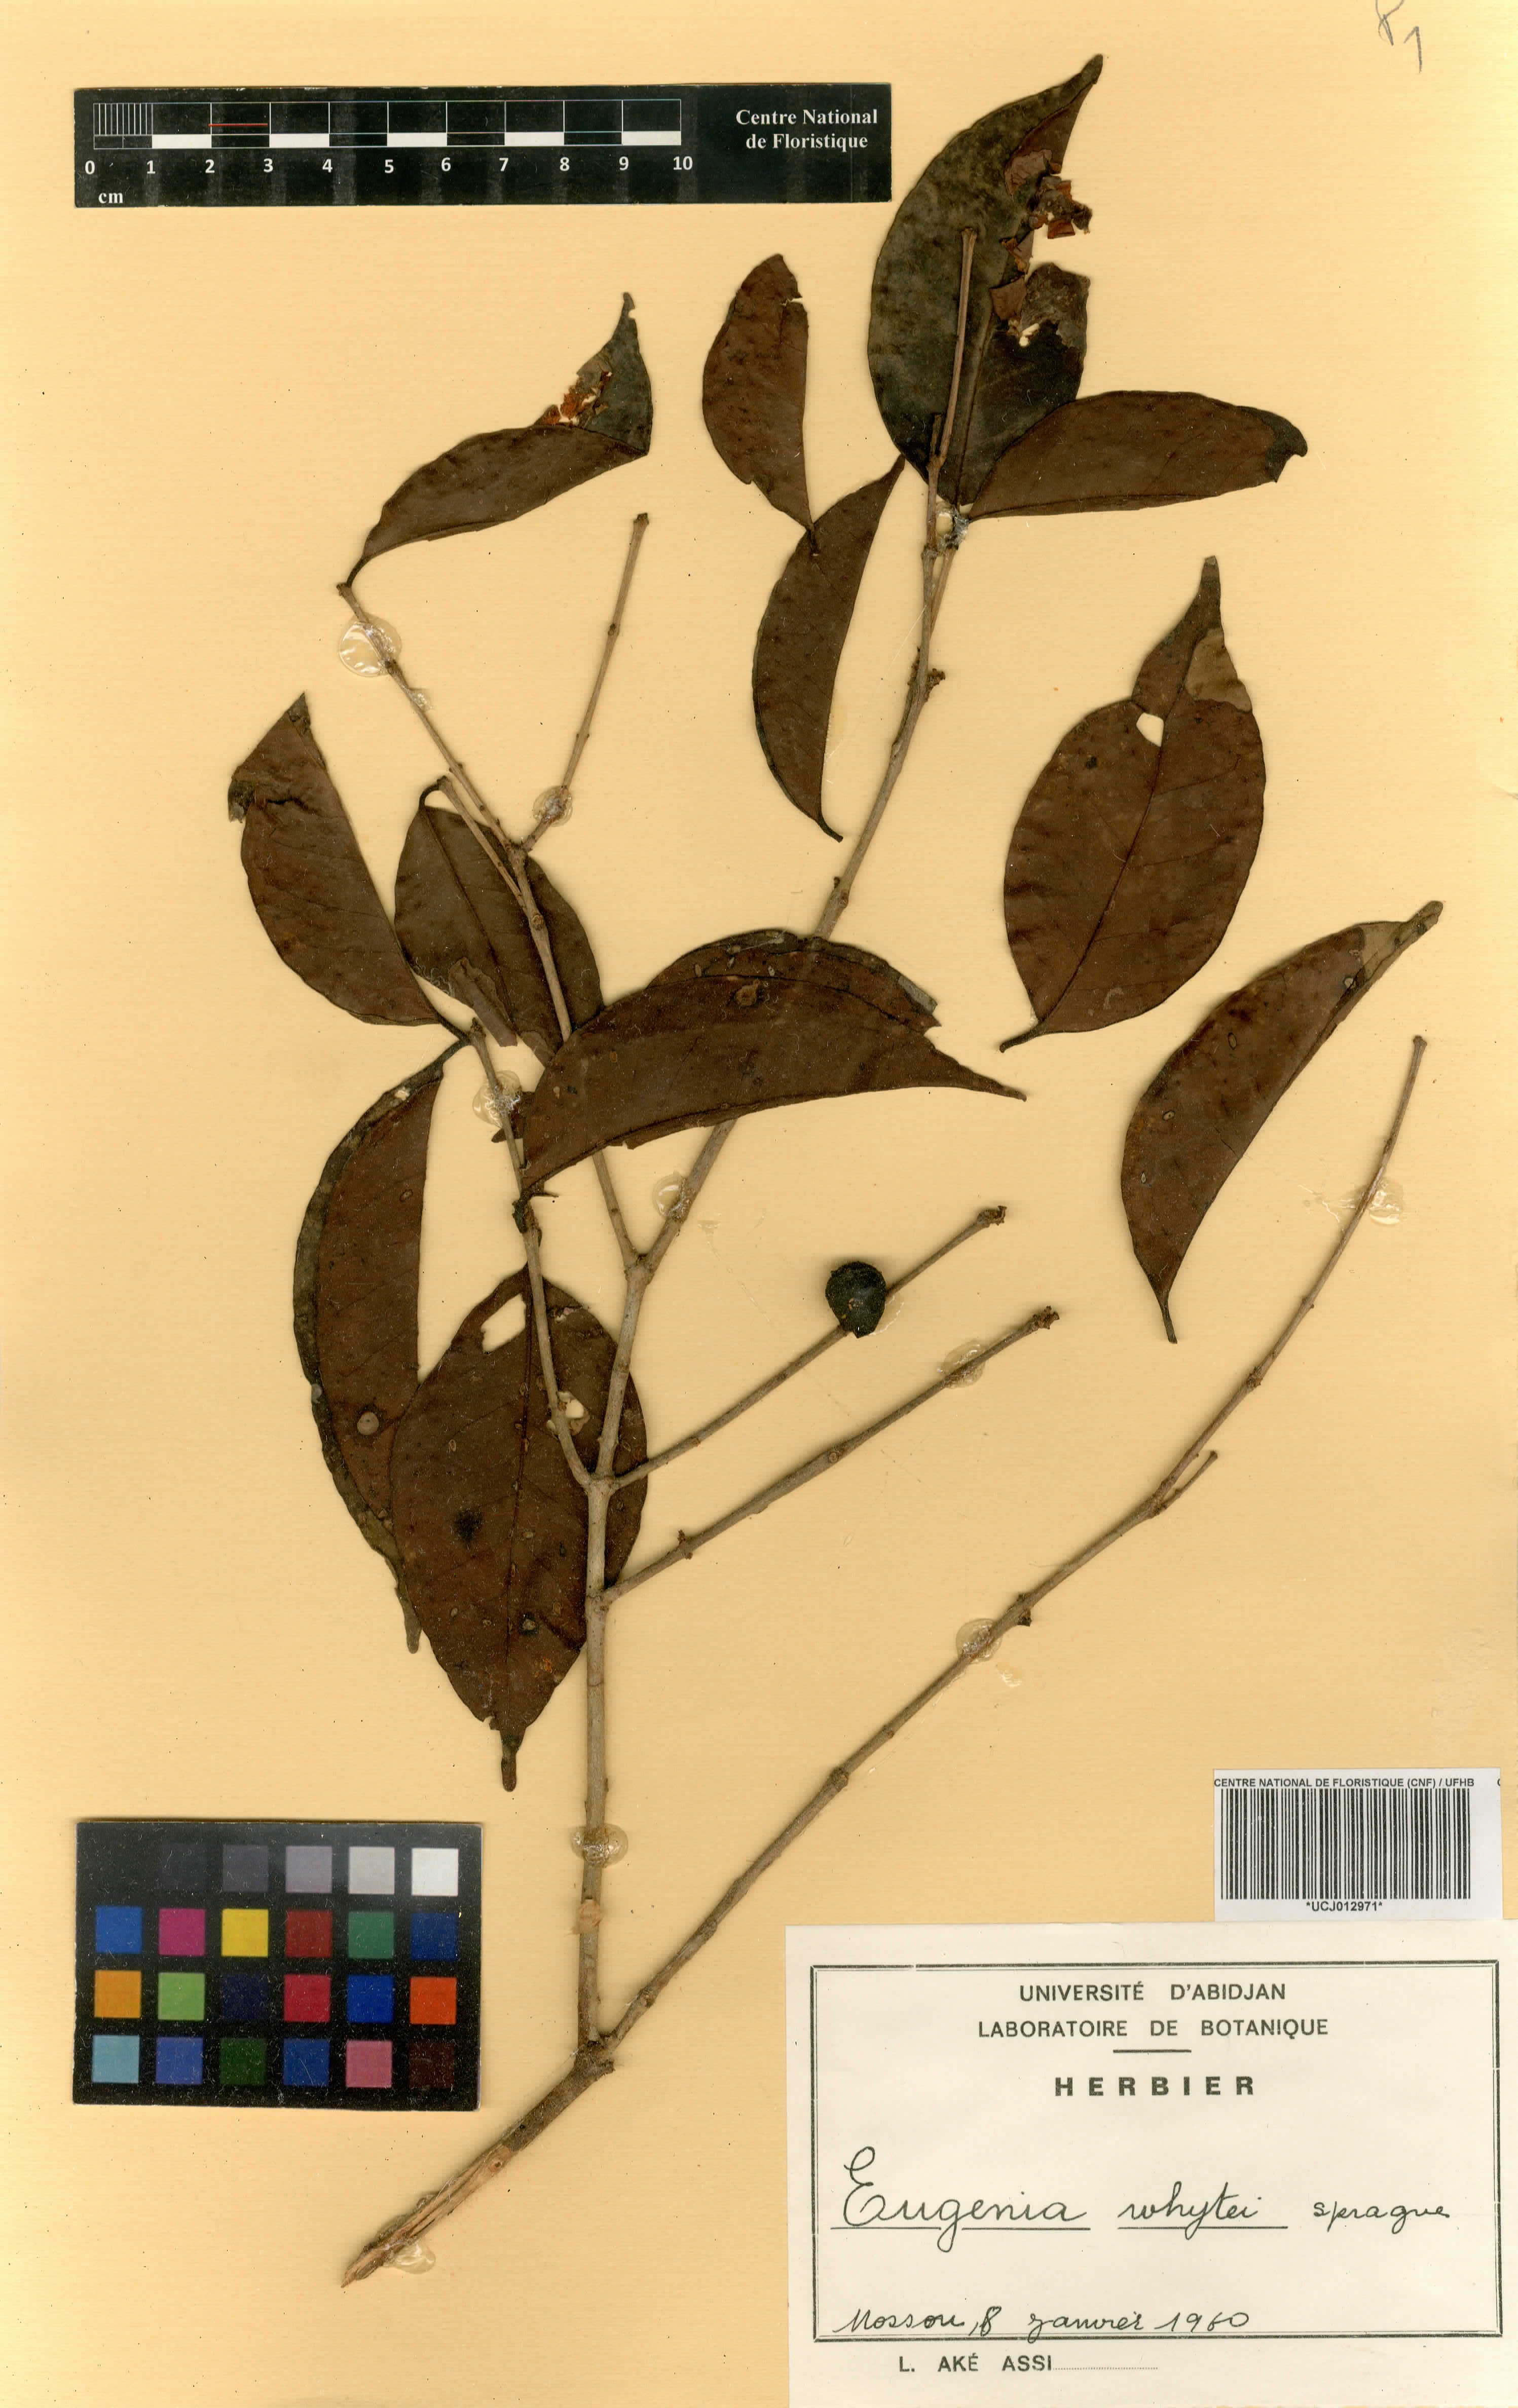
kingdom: Plantae
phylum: Tracheophyta
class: Magnoliopsida
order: Myrtales
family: Myrtaceae
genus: Eugenia
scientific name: Eugenia whytei
